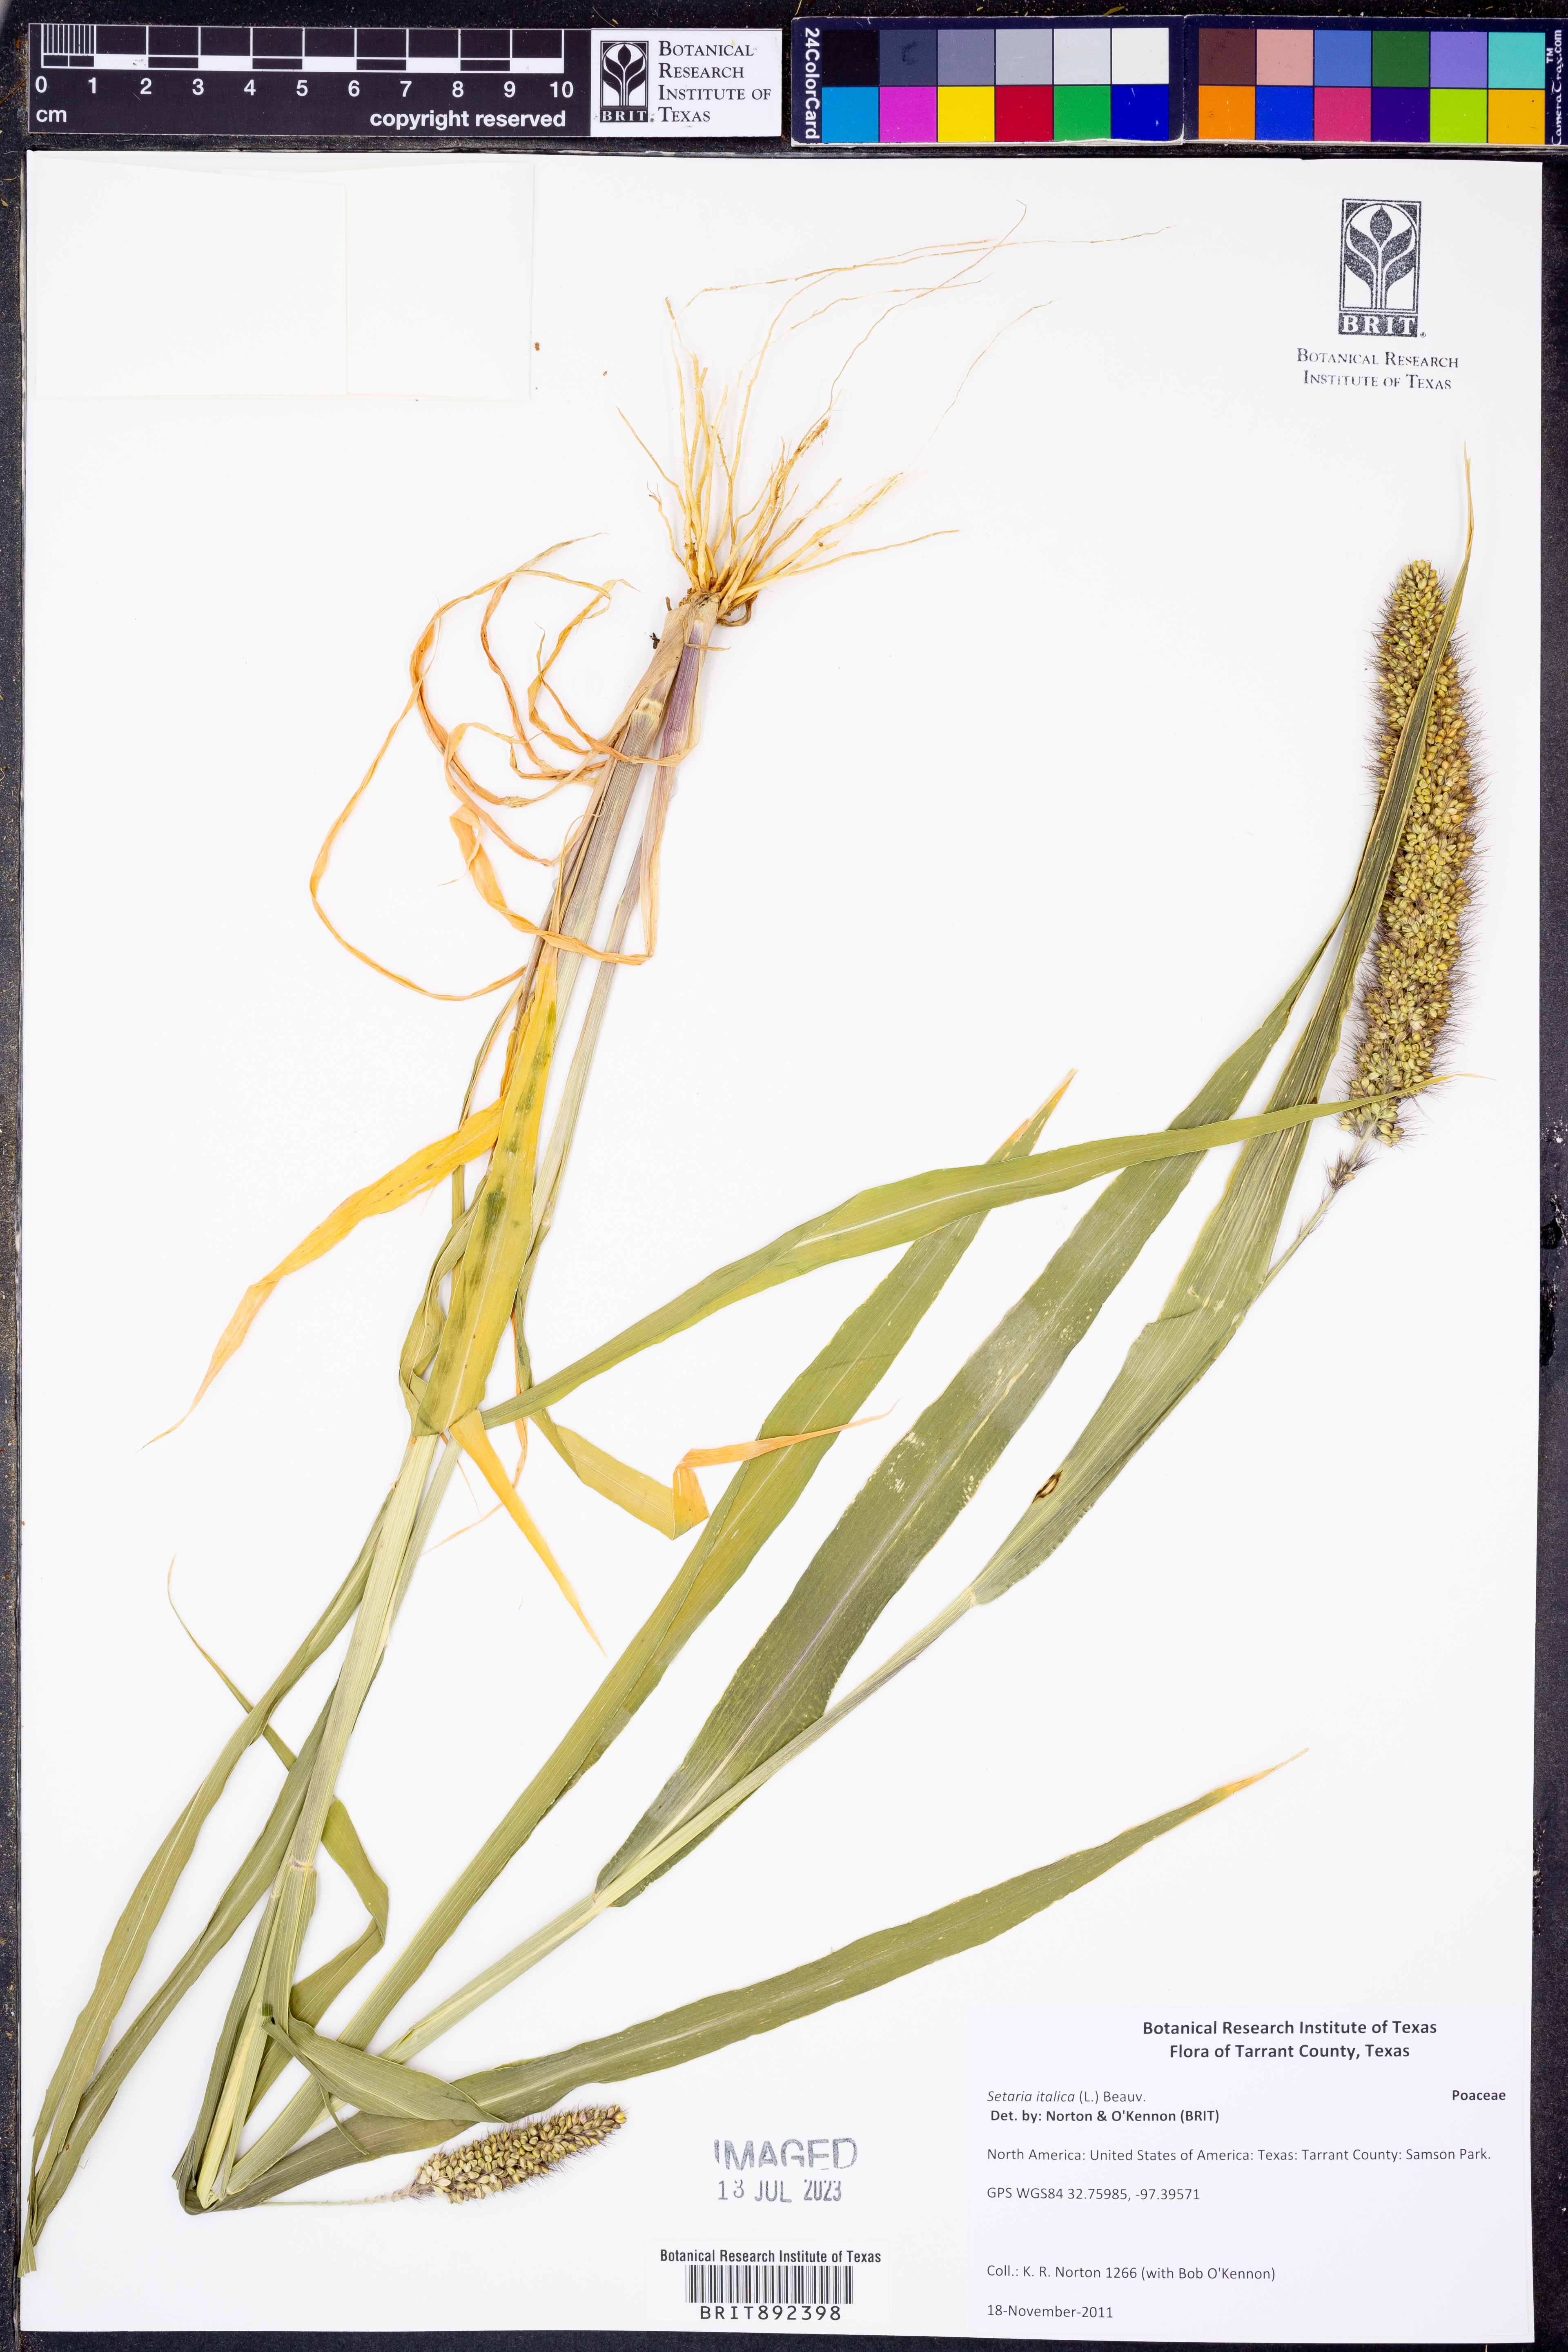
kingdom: Plantae
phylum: Tracheophyta
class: Liliopsida
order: Poales
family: Poaceae
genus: Setaria
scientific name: Setaria italica
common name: Foxtail bristle-grass
